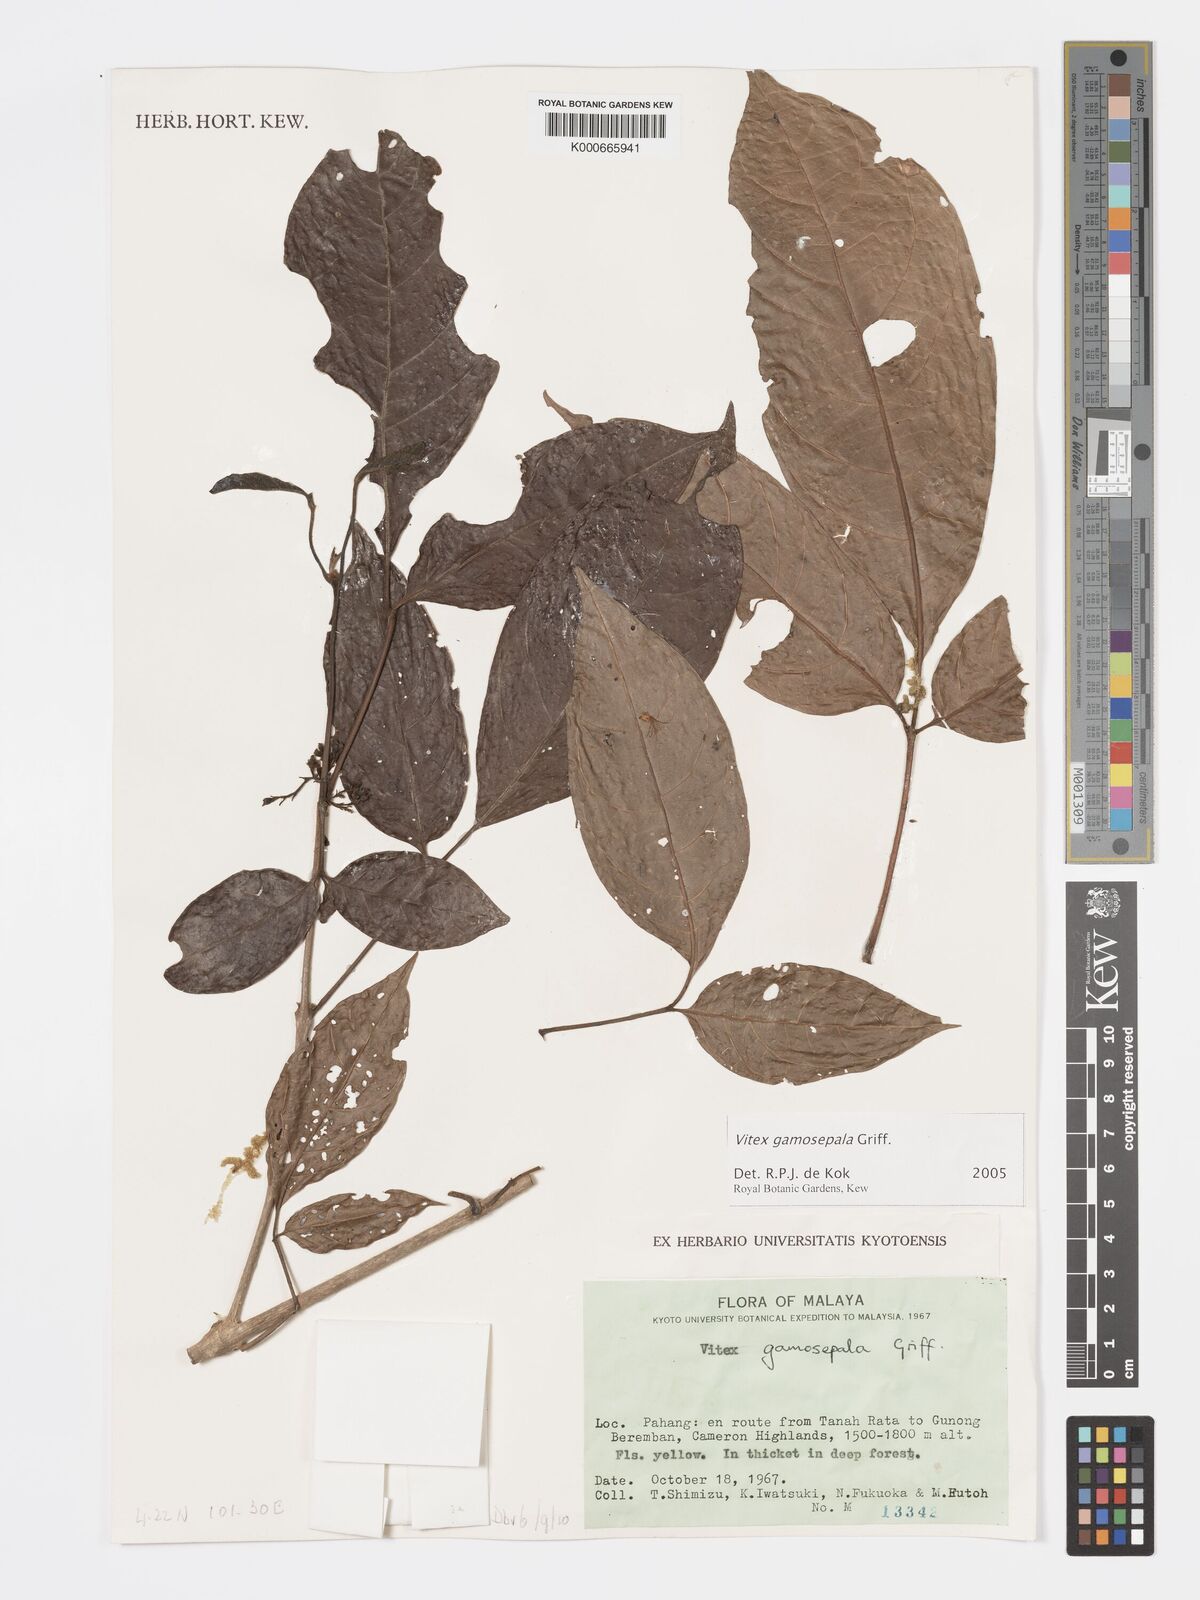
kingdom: Plantae
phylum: Tracheophyta
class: Magnoliopsida
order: Lamiales
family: Lamiaceae
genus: Vitex
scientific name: Vitex gamosepala
